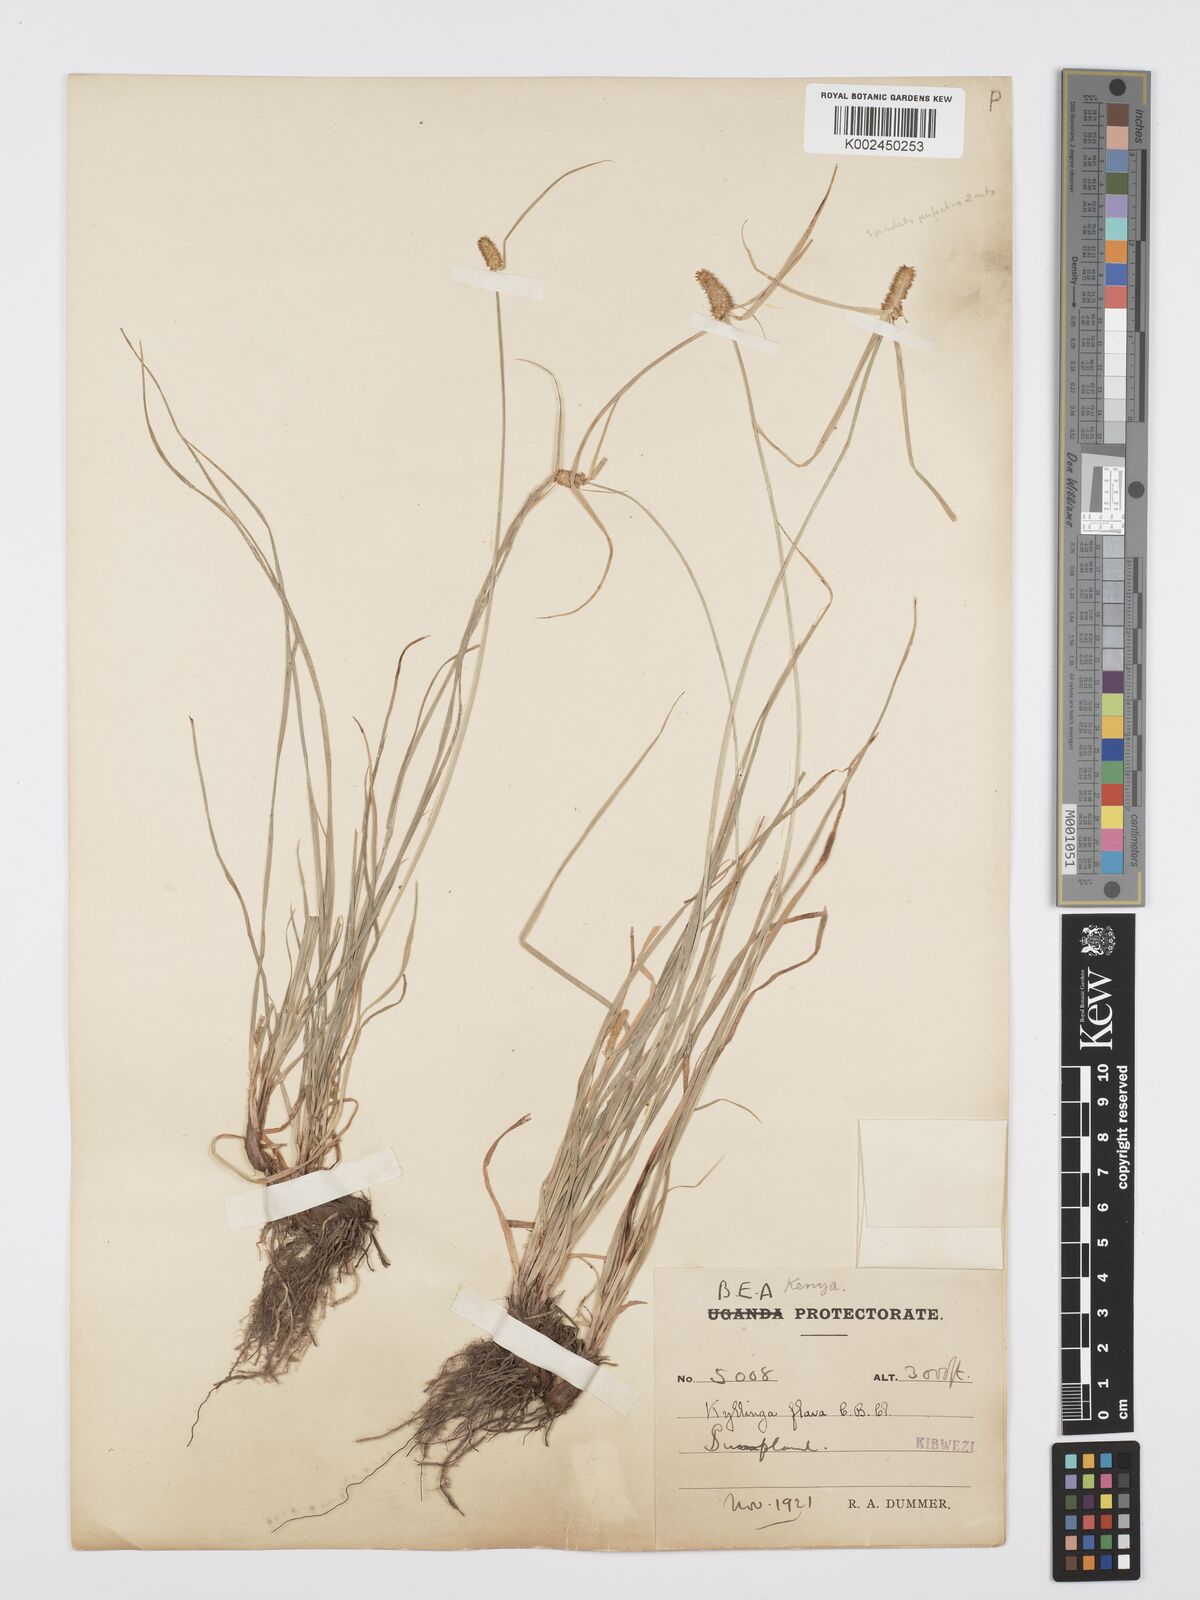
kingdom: Plantae
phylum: Tracheophyta
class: Liliopsida
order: Poales
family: Cyperaceae
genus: Cyperus
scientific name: Cyperus
